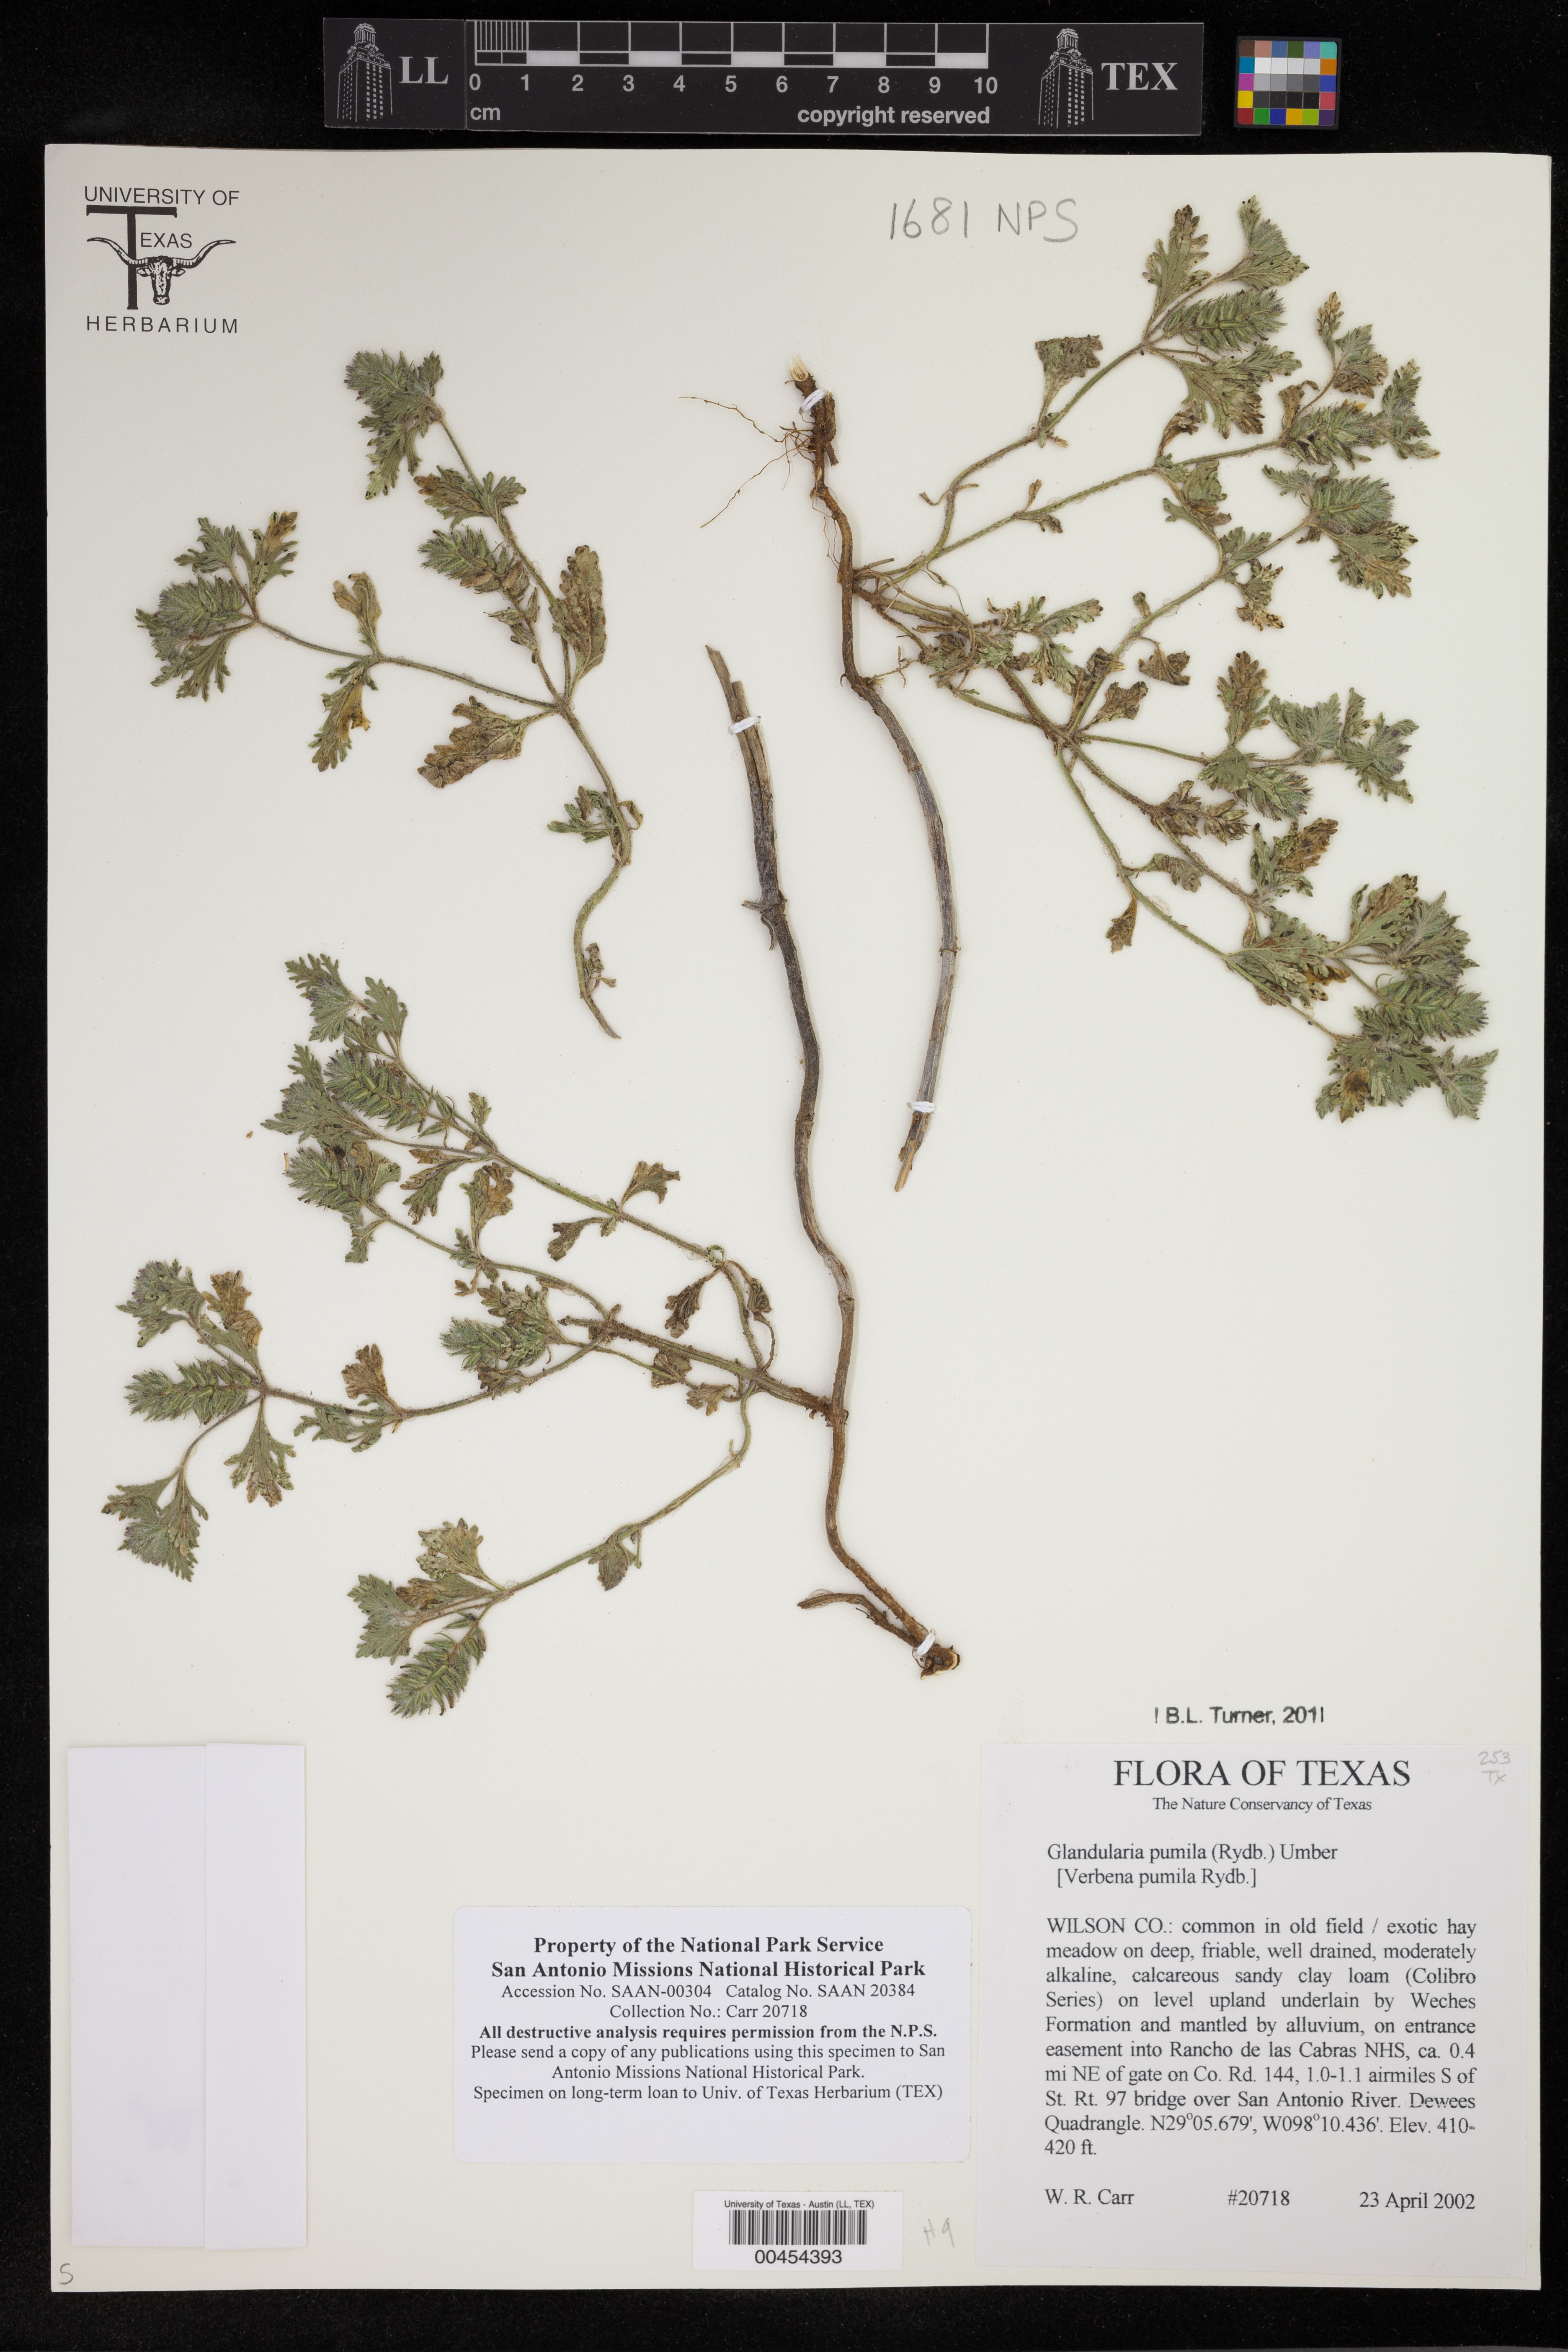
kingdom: Plantae
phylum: Tracheophyta
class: Magnoliopsida
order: Lamiales
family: Verbenaceae
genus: Verbena
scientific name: Verbena pumila
